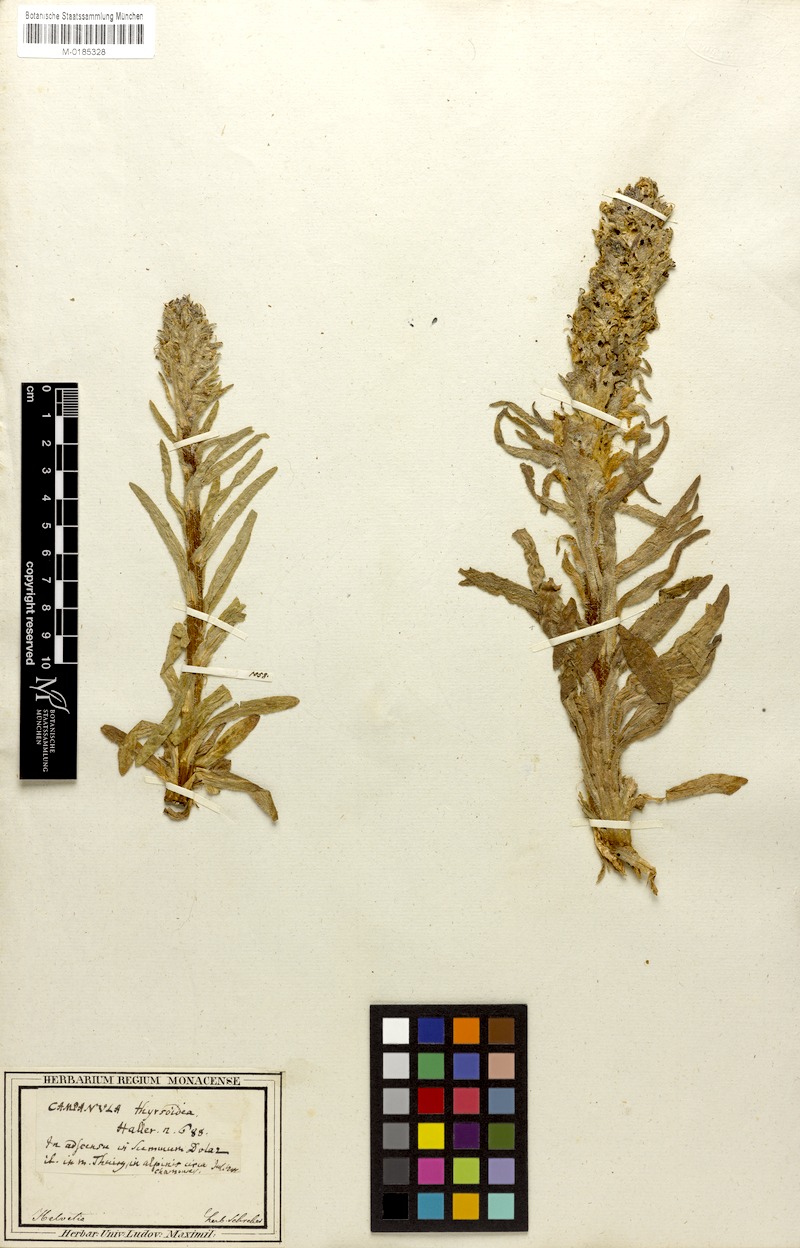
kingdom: Plantae
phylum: Tracheophyta
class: Magnoliopsida
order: Asterales
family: Campanulaceae
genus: Campanula
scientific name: Campanula thyrsoides
